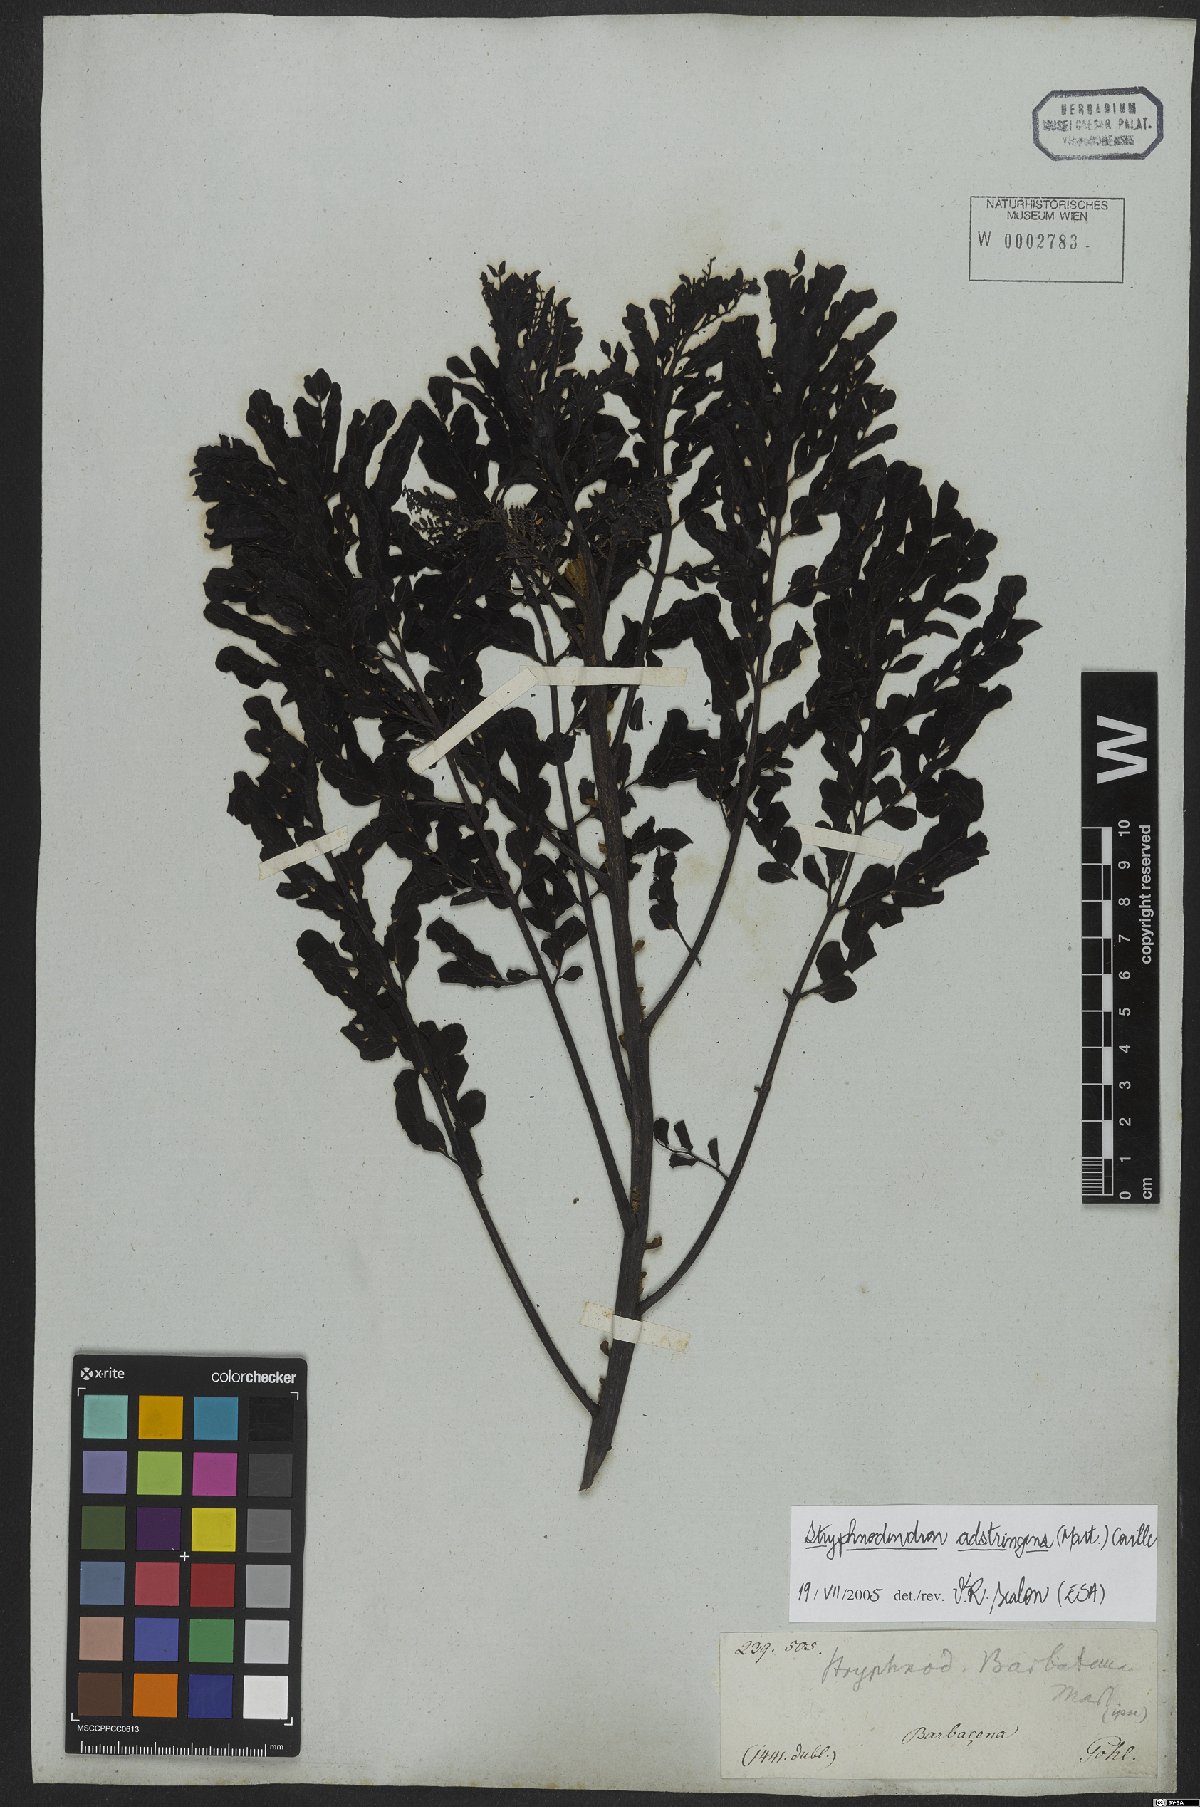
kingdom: Plantae
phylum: Tracheophyta
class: Magnoliopsida
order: Fabales
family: Fabaceae
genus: Stryphnodendron
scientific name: Stryphnodendron adstringens
